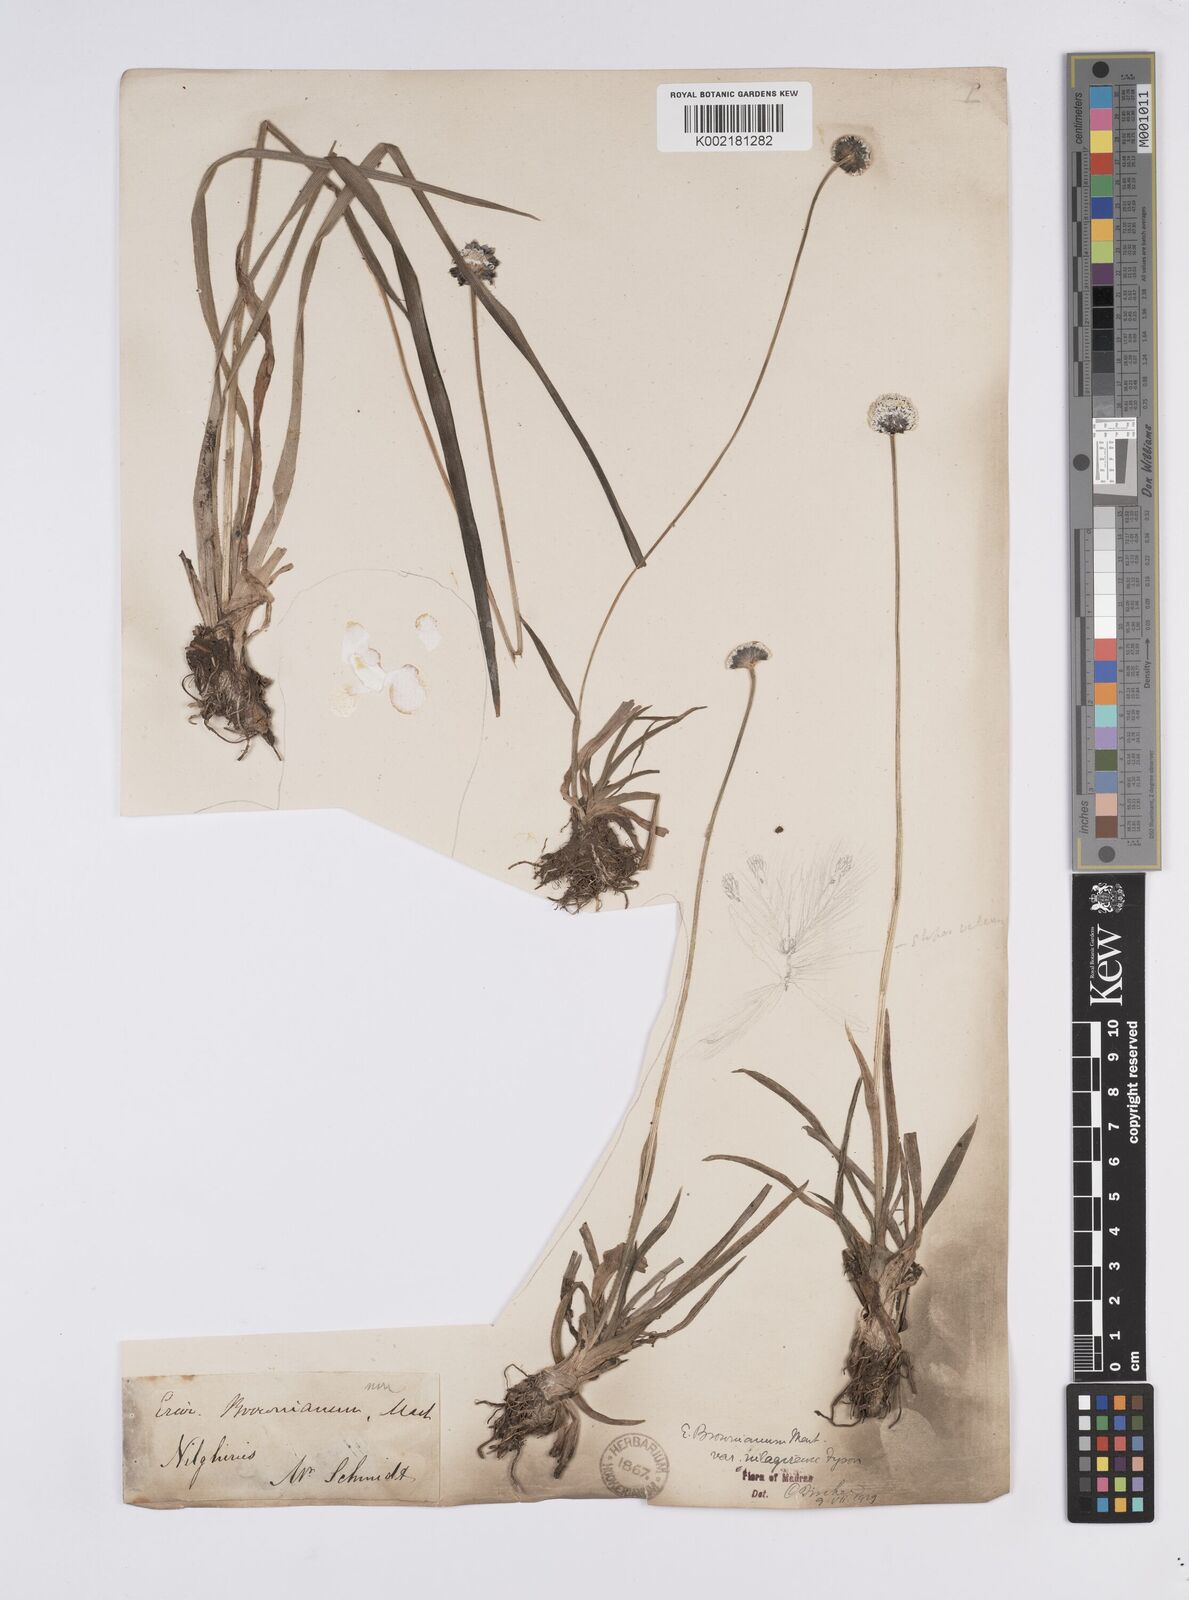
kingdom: Plantae
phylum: Tracheophyta
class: Liliopsida
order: Poales
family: Eriocaulaceae
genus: Eriocaulon
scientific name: Eriocaulon brownianum
